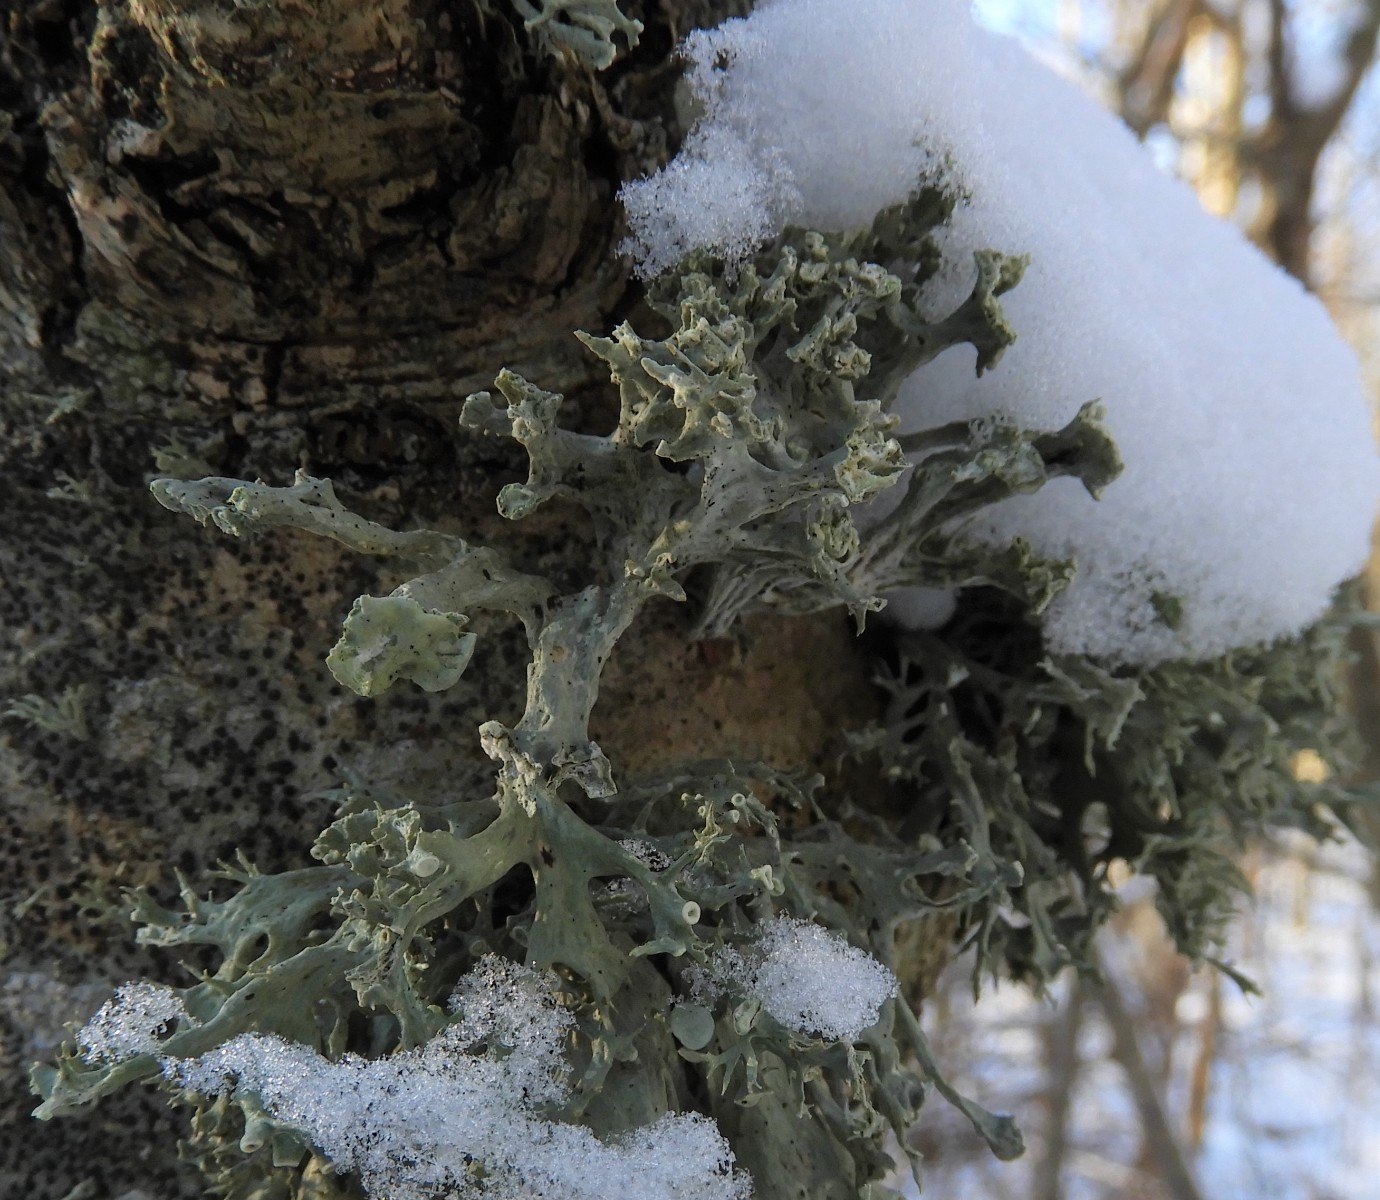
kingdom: Fungi
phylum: Ascomycota
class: Lecanoromycetes
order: Lecanorales
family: Ramalinaceae
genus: Ramalina
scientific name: Ramalina fastigiata
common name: tue-grenlav
